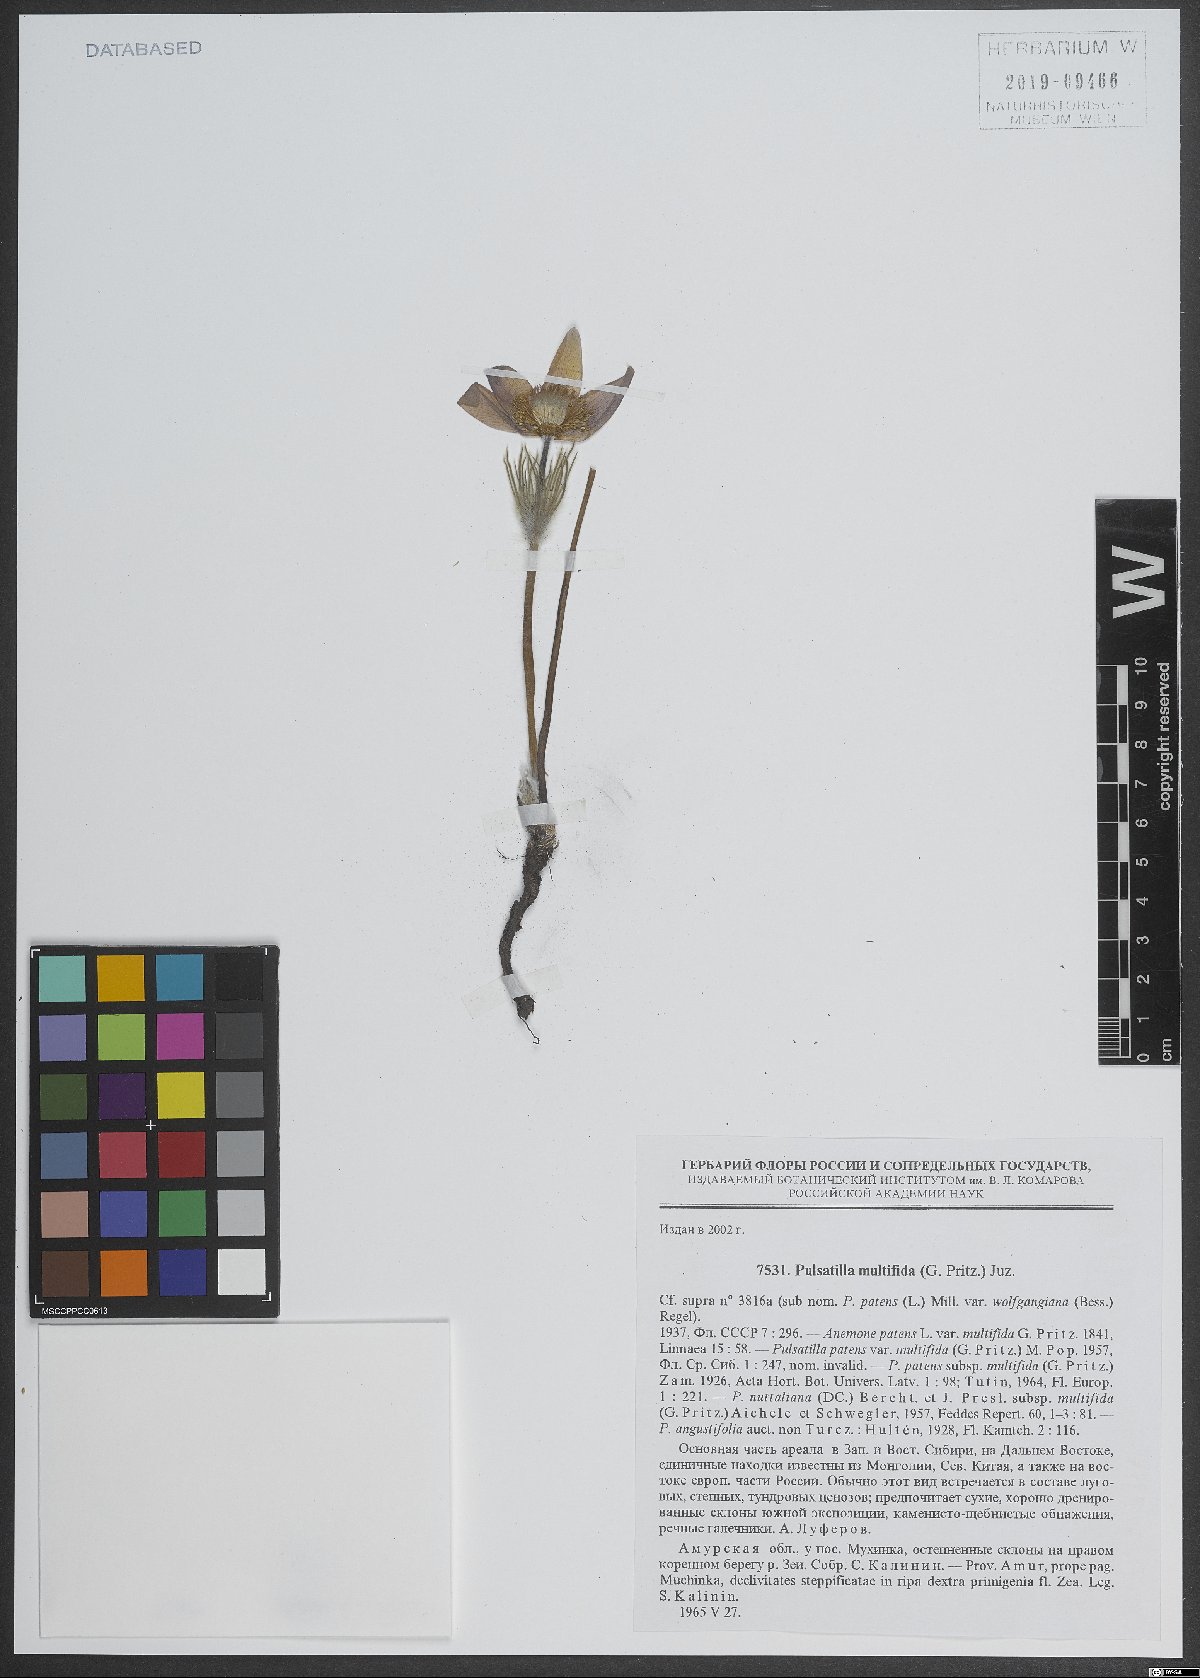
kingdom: Plantae
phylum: Tracheophyta
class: Magnoliopsida
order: Ranunculales
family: Ranunculaceae
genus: Pulsatilla
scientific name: Pulsatilla patens
